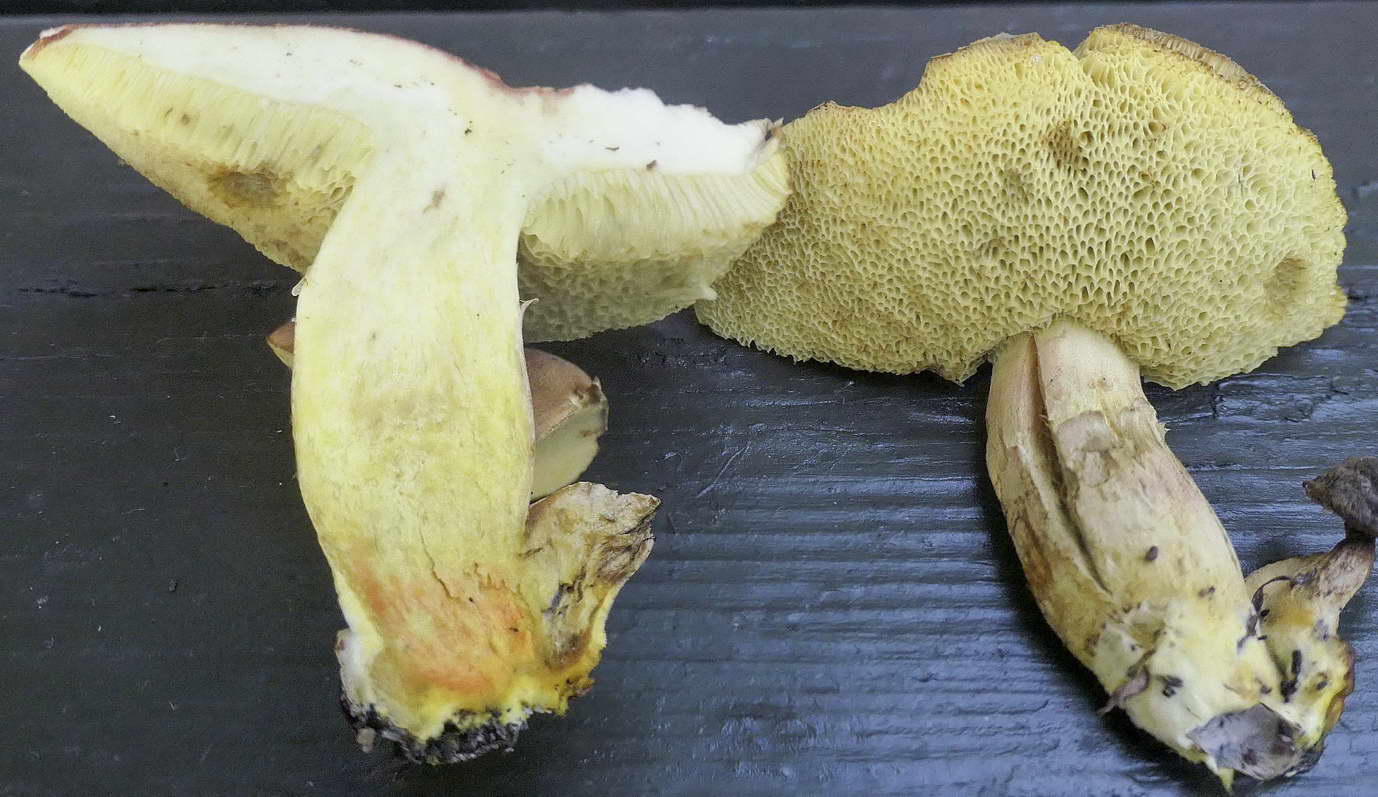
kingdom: Fungi
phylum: Basidiomycota
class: Agaricomycetes
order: Boletales
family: Boletaceae
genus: Hortiboletus
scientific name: Hortiboletus engelii
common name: fersken-rørhat
